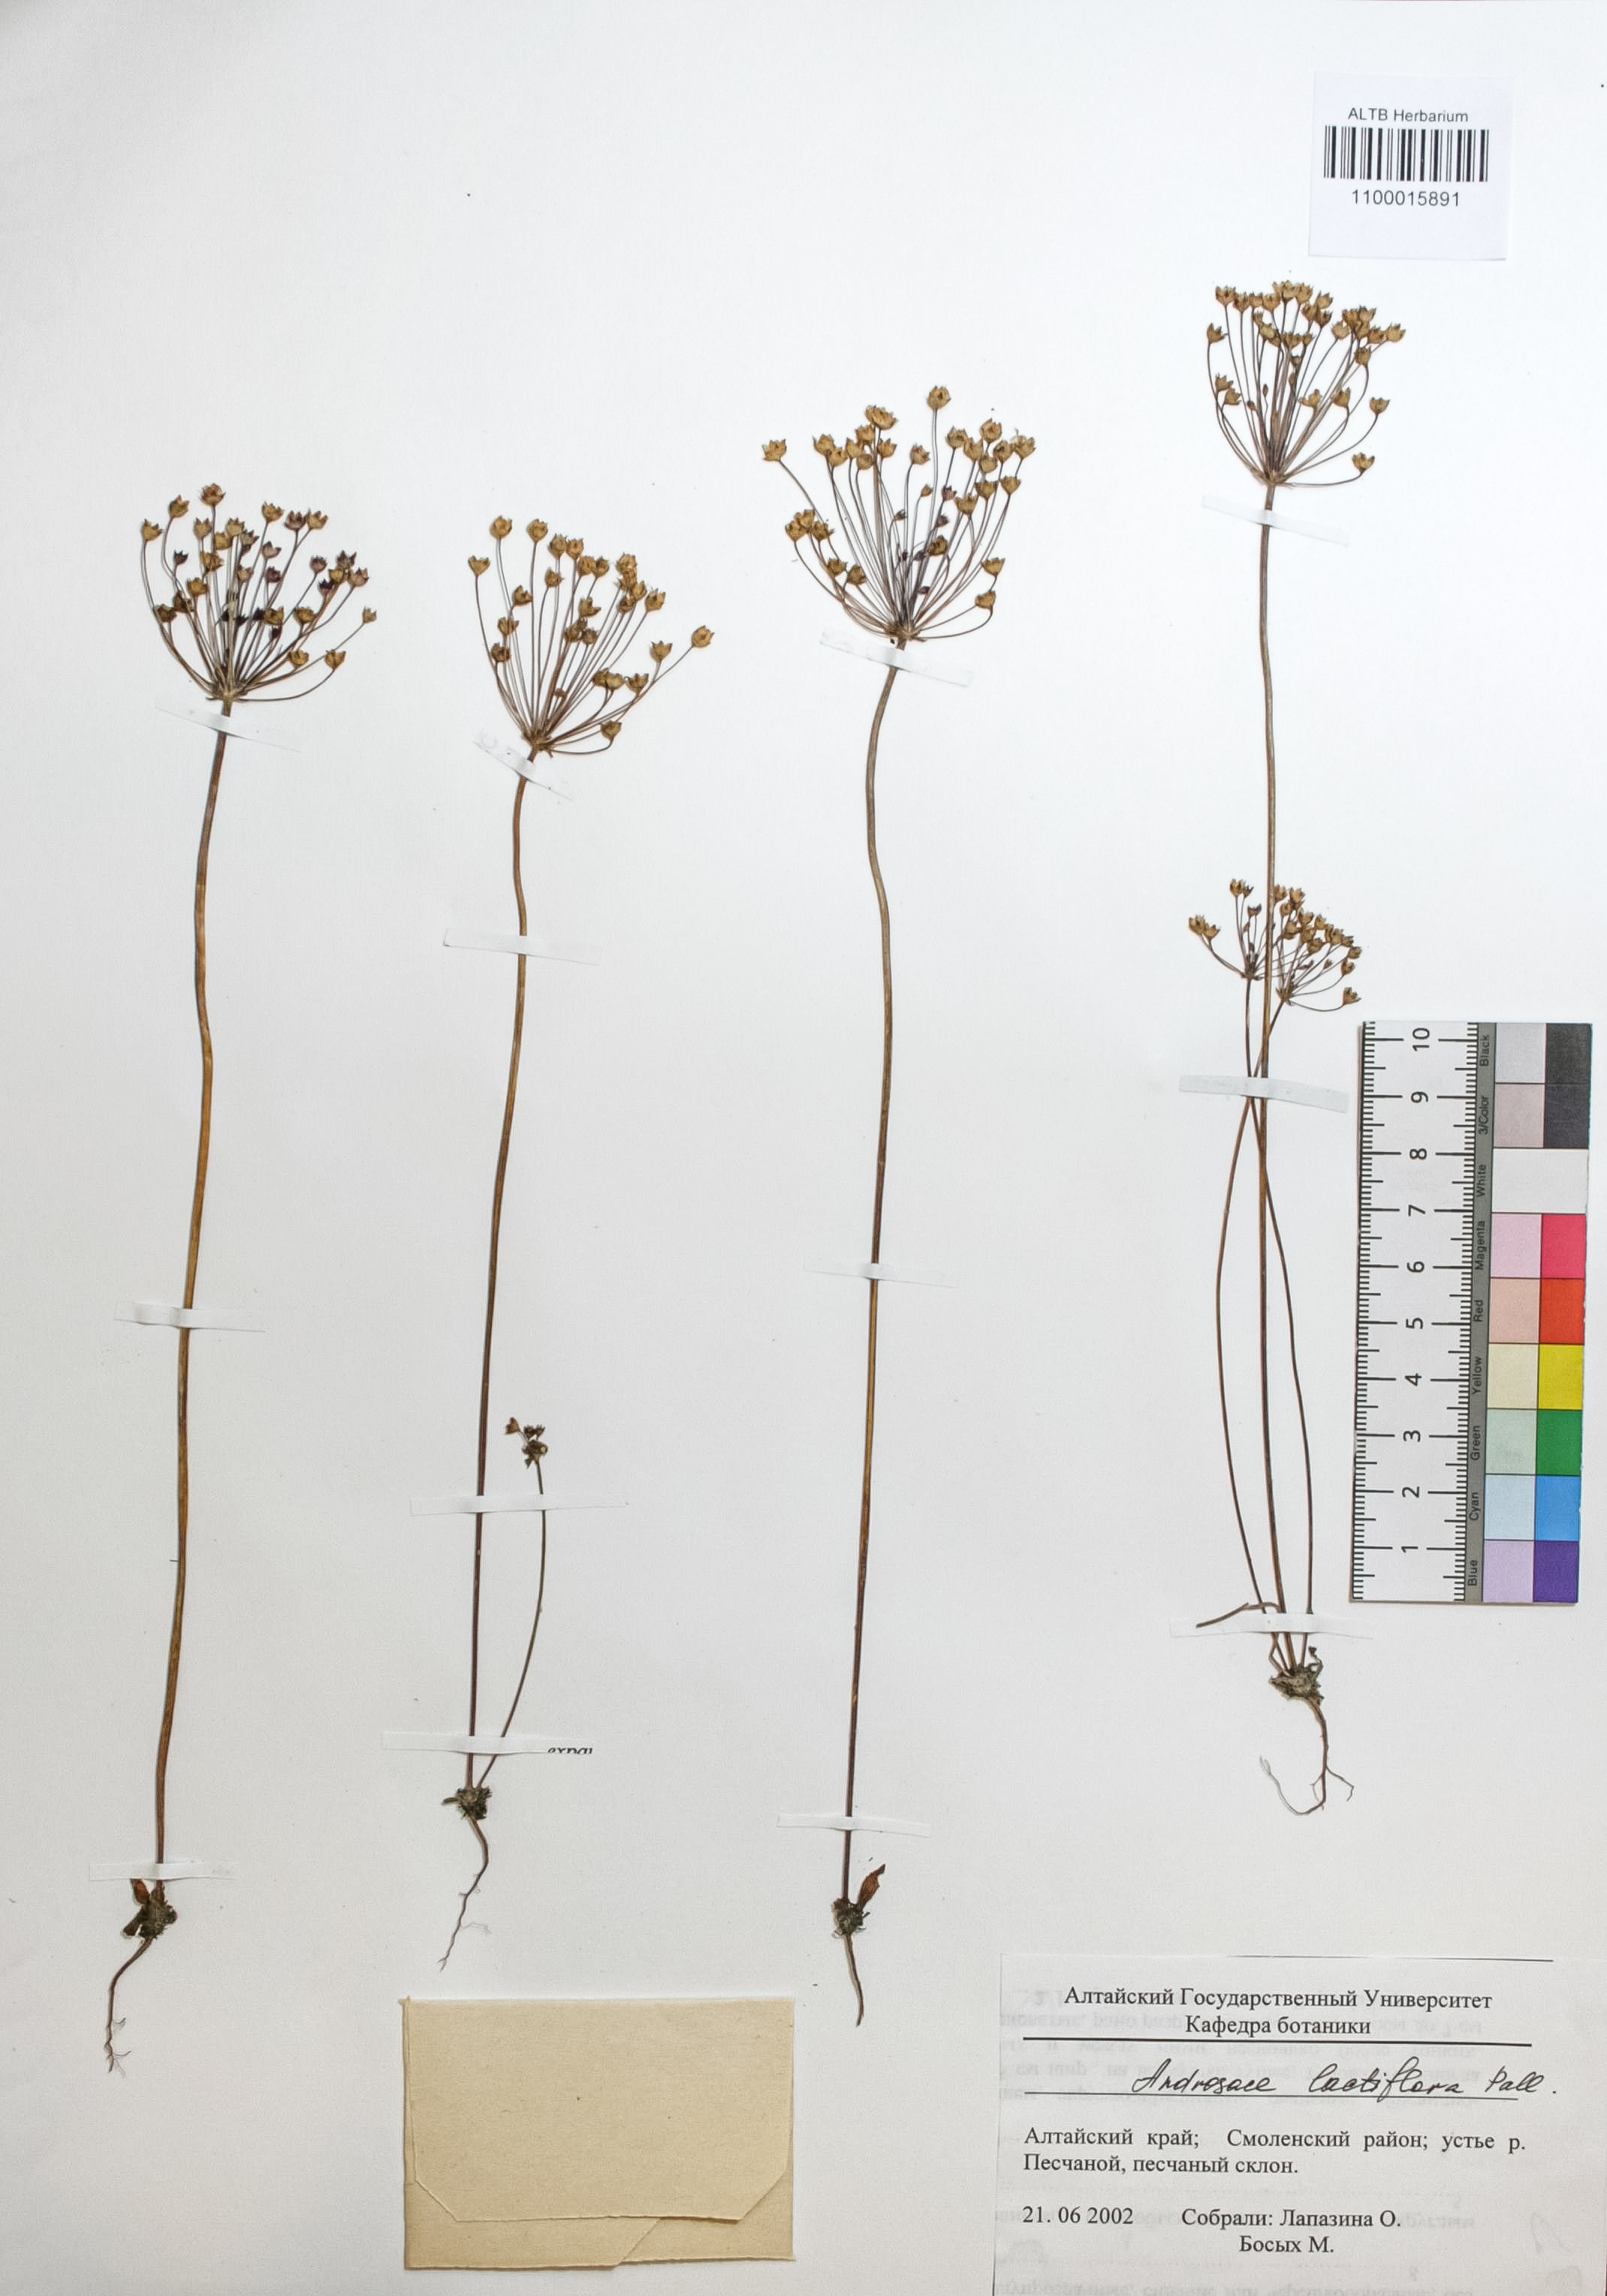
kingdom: Plantae
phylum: Tracheophyta
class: Magnoliopsida
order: Ericales
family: Primulaceae
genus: Androsace
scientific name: Androsace lactiflora
